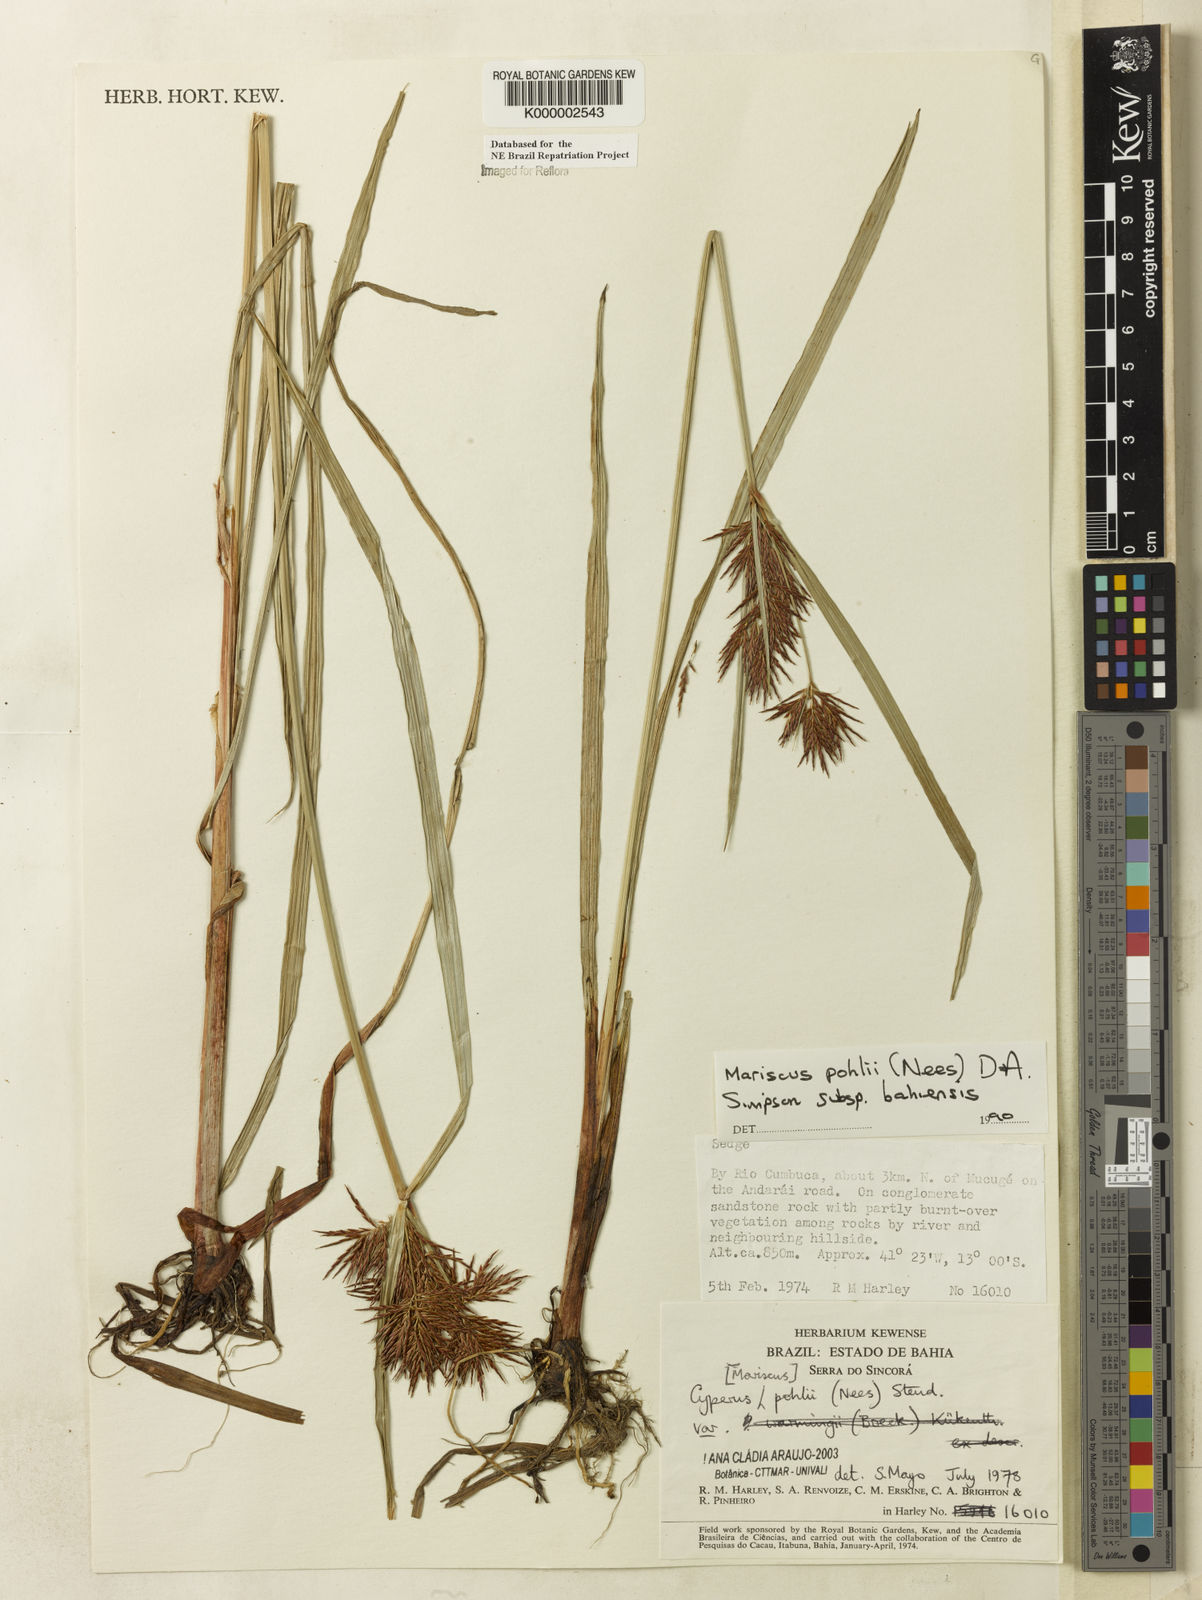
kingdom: Plantae
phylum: Tracheophyta
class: Liliopsida
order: Poales
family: Cyperaceae
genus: Cyperus
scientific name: Cyperus pohlii
